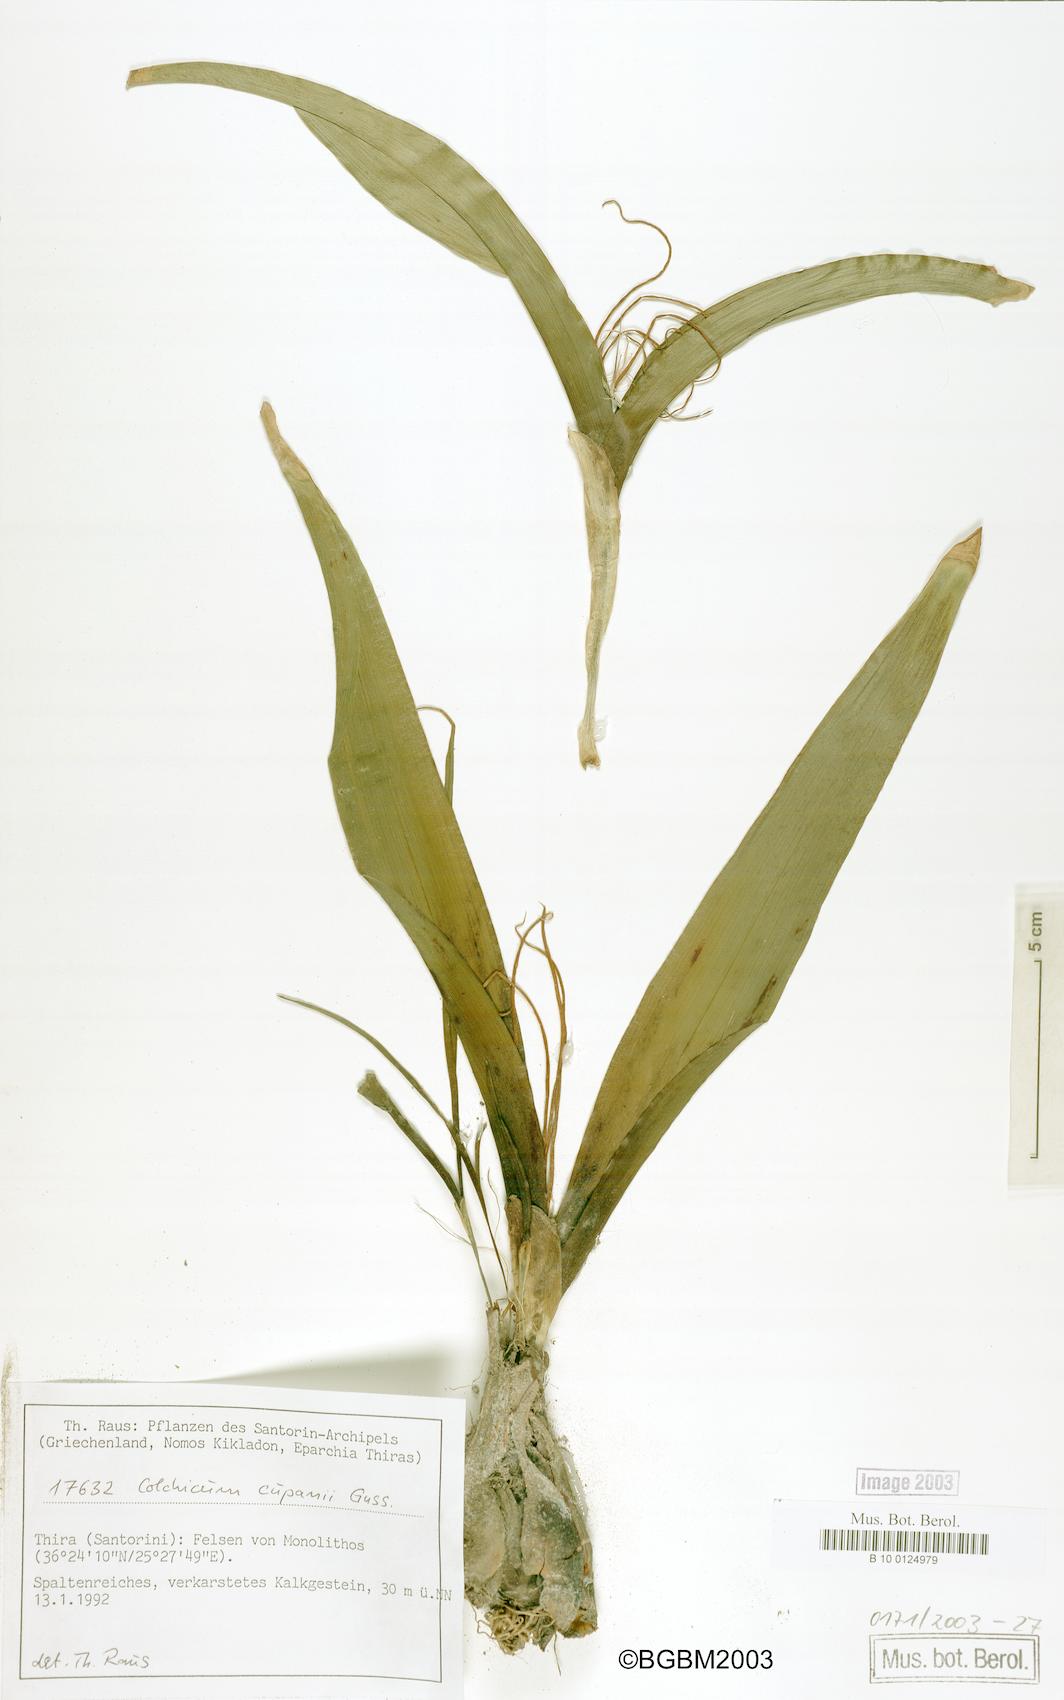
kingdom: Plantae
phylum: Tracheophyta
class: Liliopsida
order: Liliales
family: Colchicaceae
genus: Colchicum
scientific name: Colchicum cupanii
